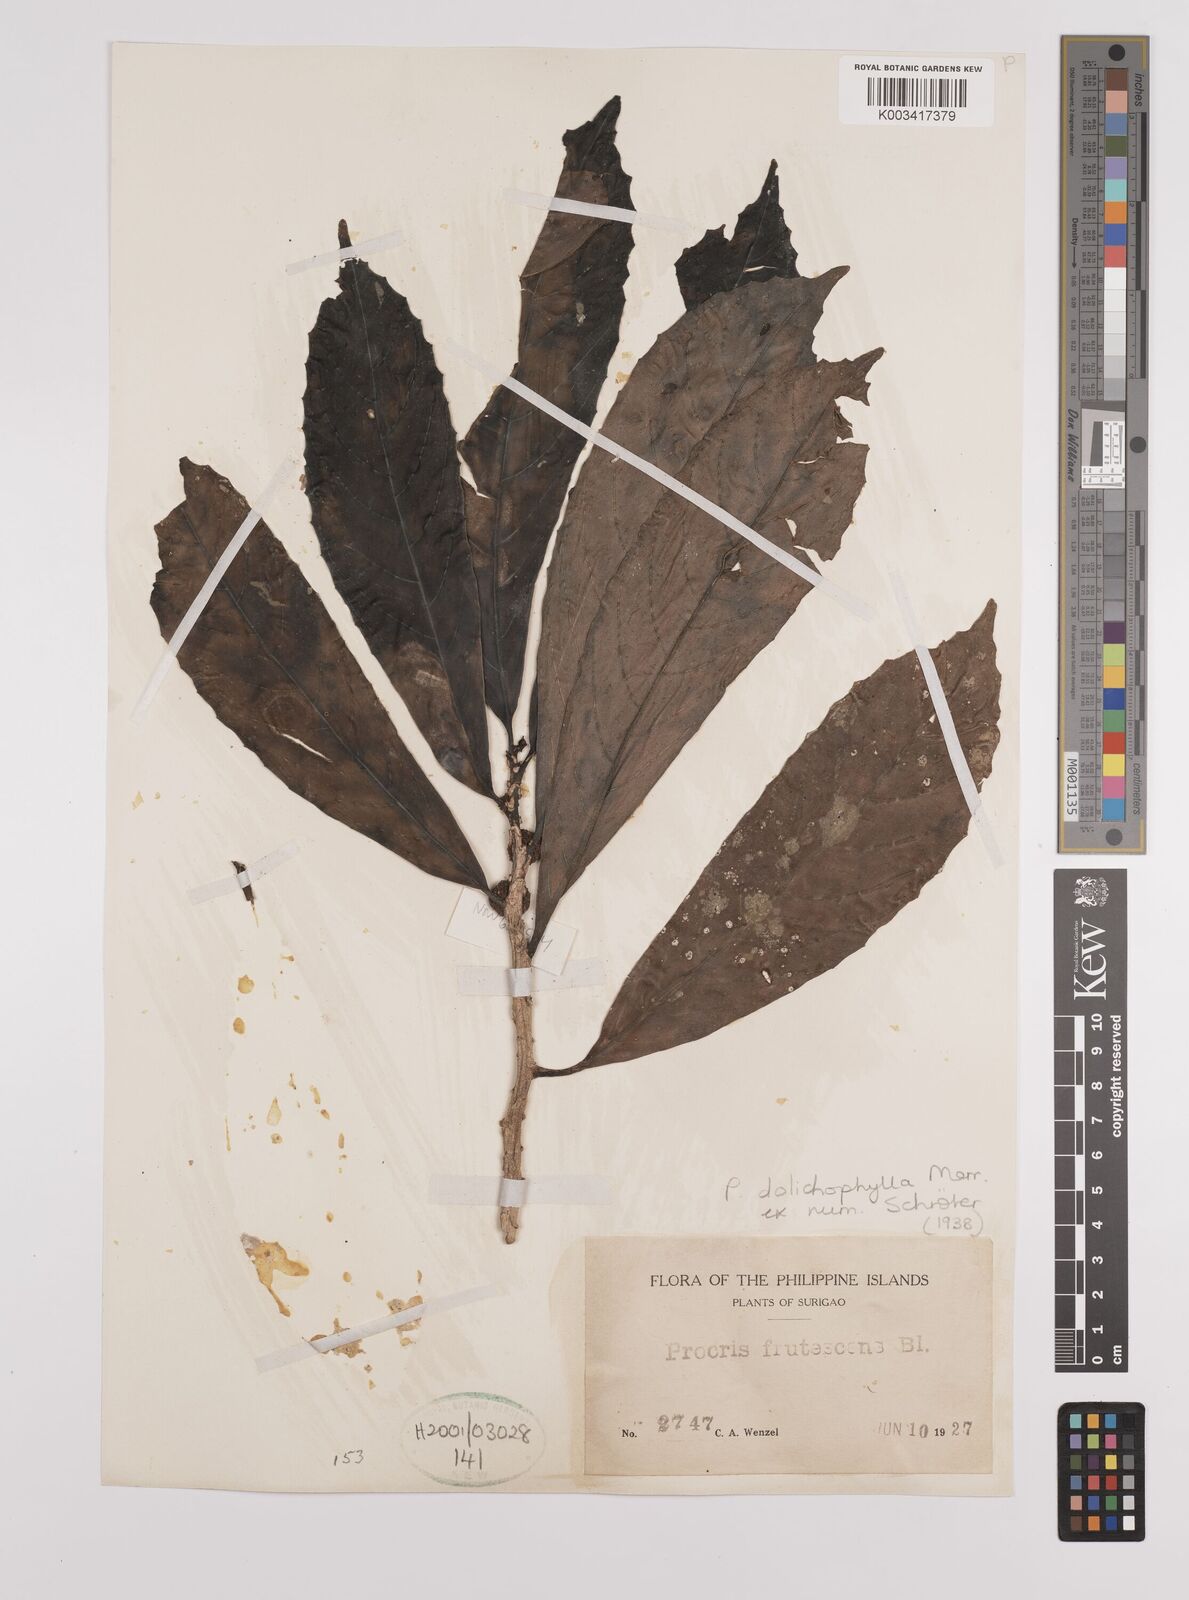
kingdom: Plantae
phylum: Tracheophyta
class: Magnoliopsida
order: Rosales
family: Urticaceae
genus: Procris
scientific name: Procris dolichophylla
